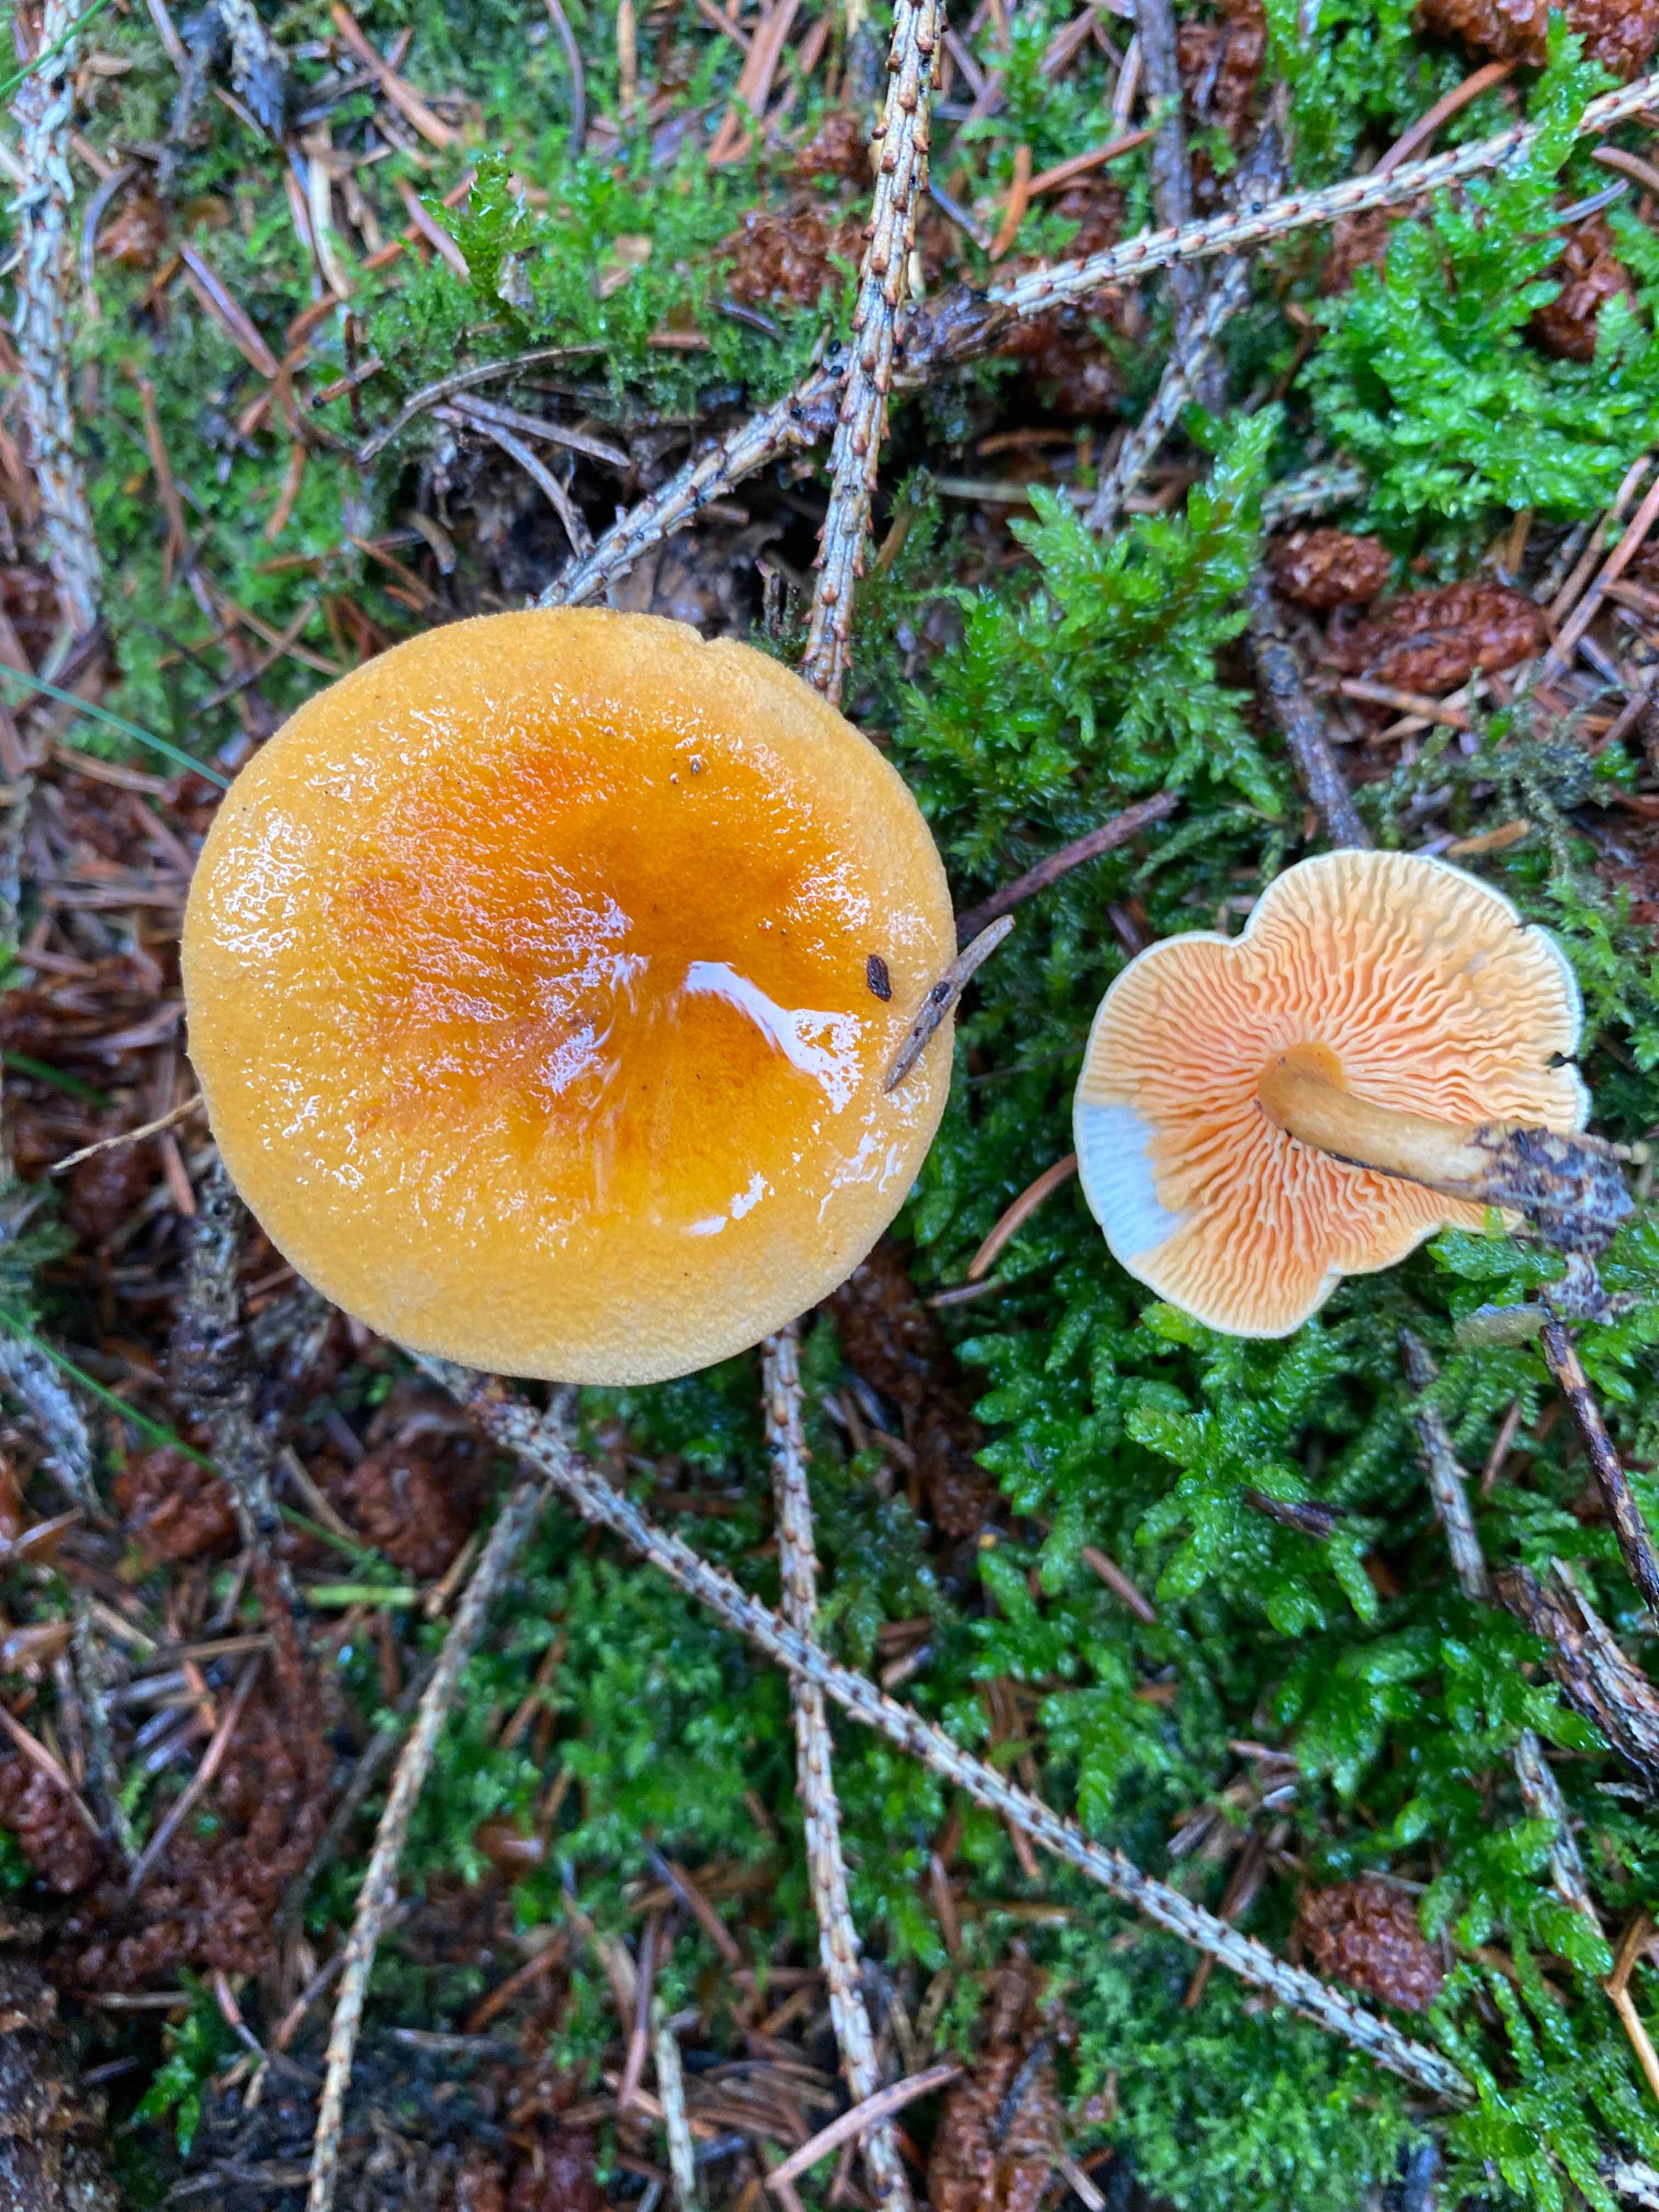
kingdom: Fungi
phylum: Basidiomycota
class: Agaricomycetes
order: Boletales
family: Hygrophoropsidaceae
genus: Hygrophoropsis
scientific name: Hygrophoropsis aurantiaca
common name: almindelig orangekantarel
